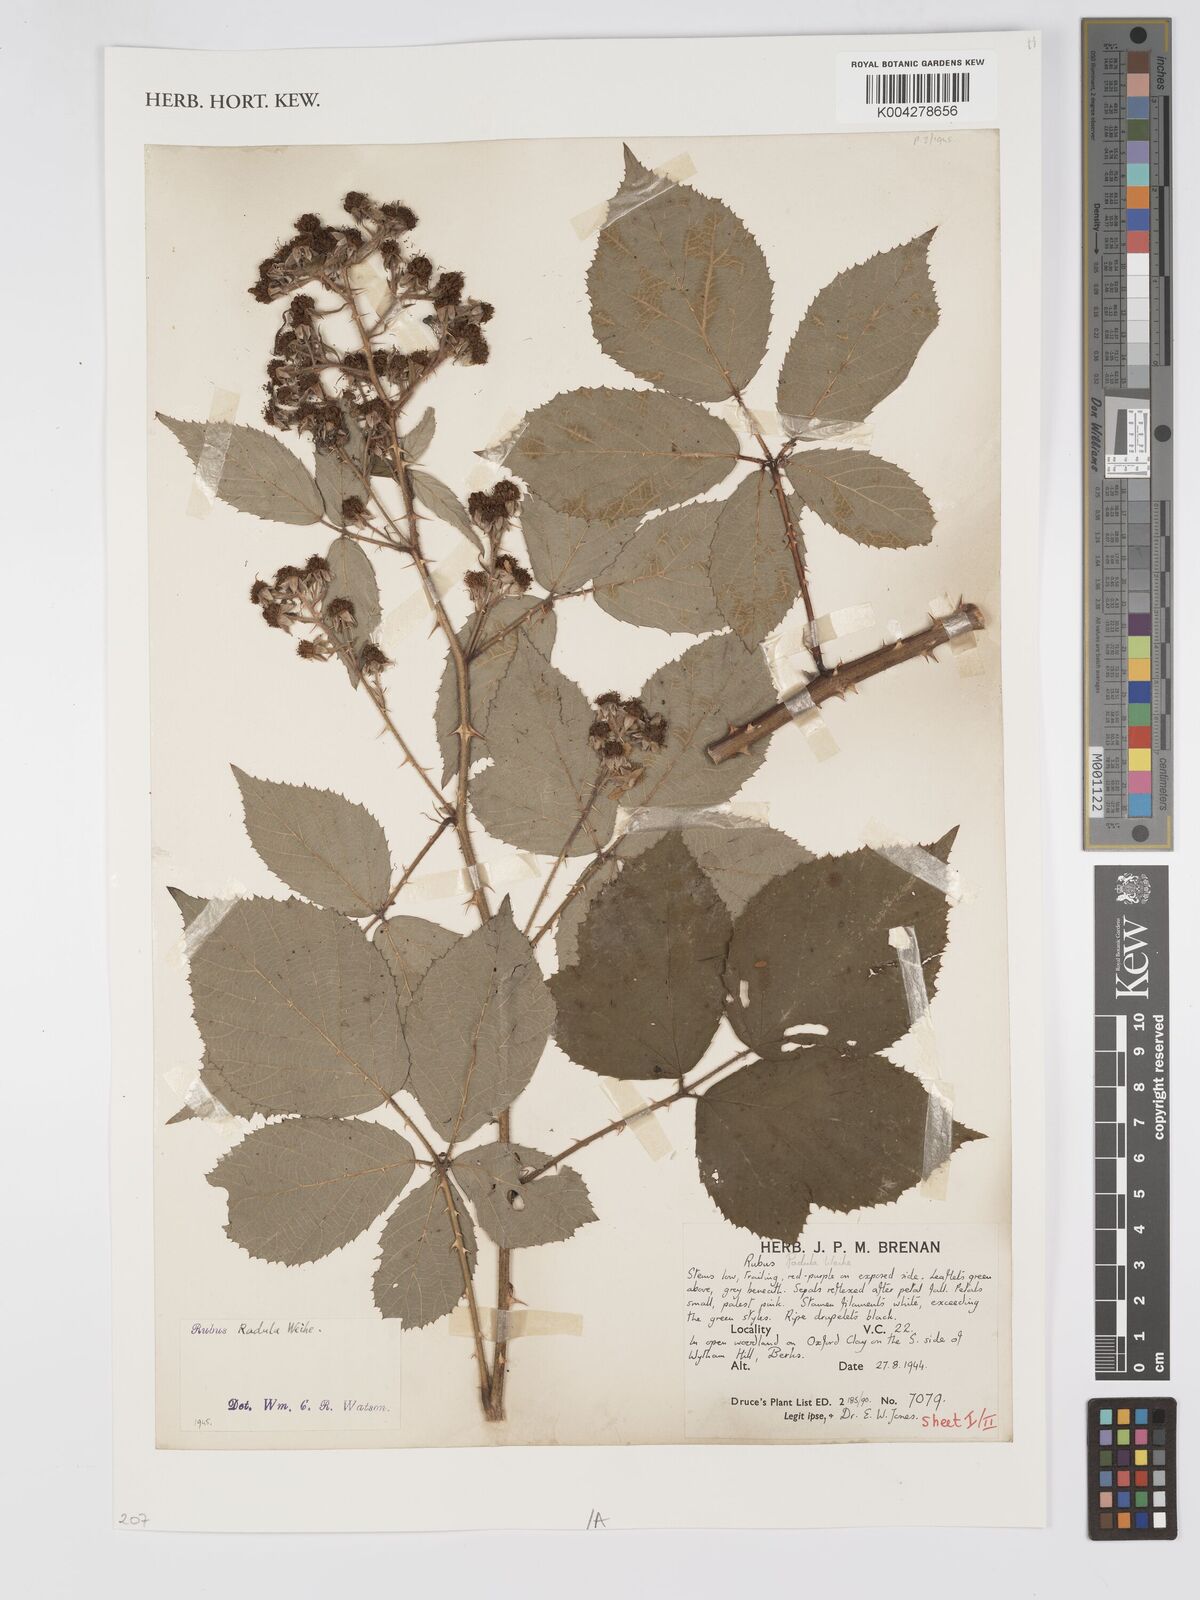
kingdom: Plantae
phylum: Tracheophyta
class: Magnoliopsida
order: Rosales
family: Rosaceae
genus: Rubus
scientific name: Rubus radula
